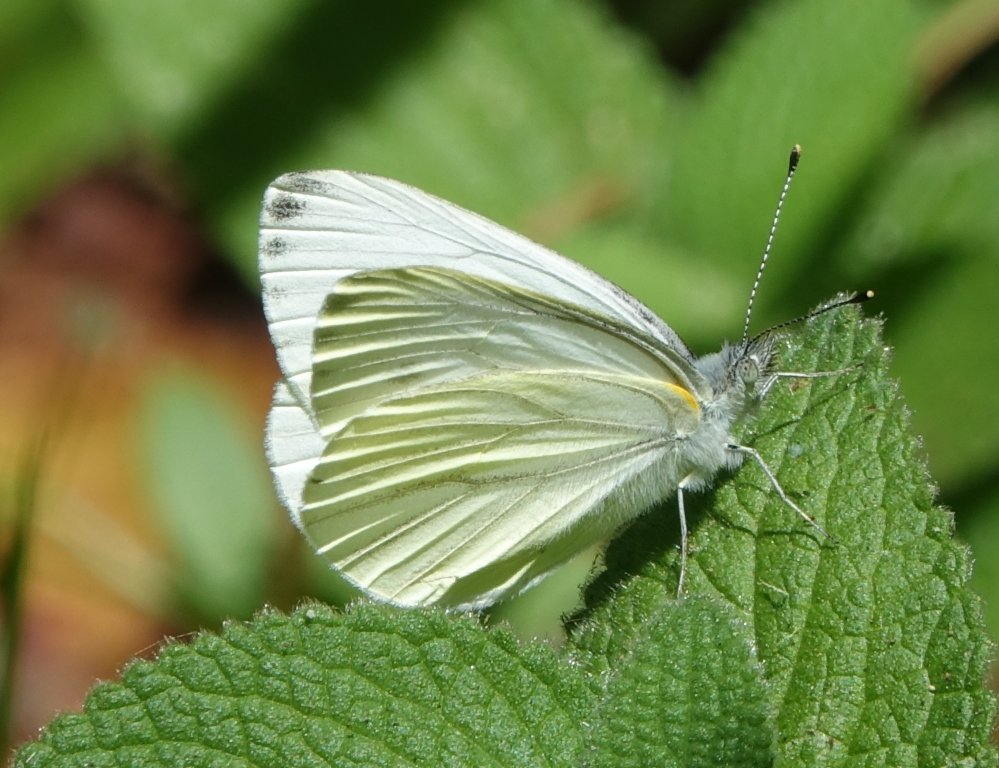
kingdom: Animalia
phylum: Arthropoda
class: Insecta
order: Lepidoptera
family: Pieridae
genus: Pieris
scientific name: Pieris marginalis
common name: Margined White
